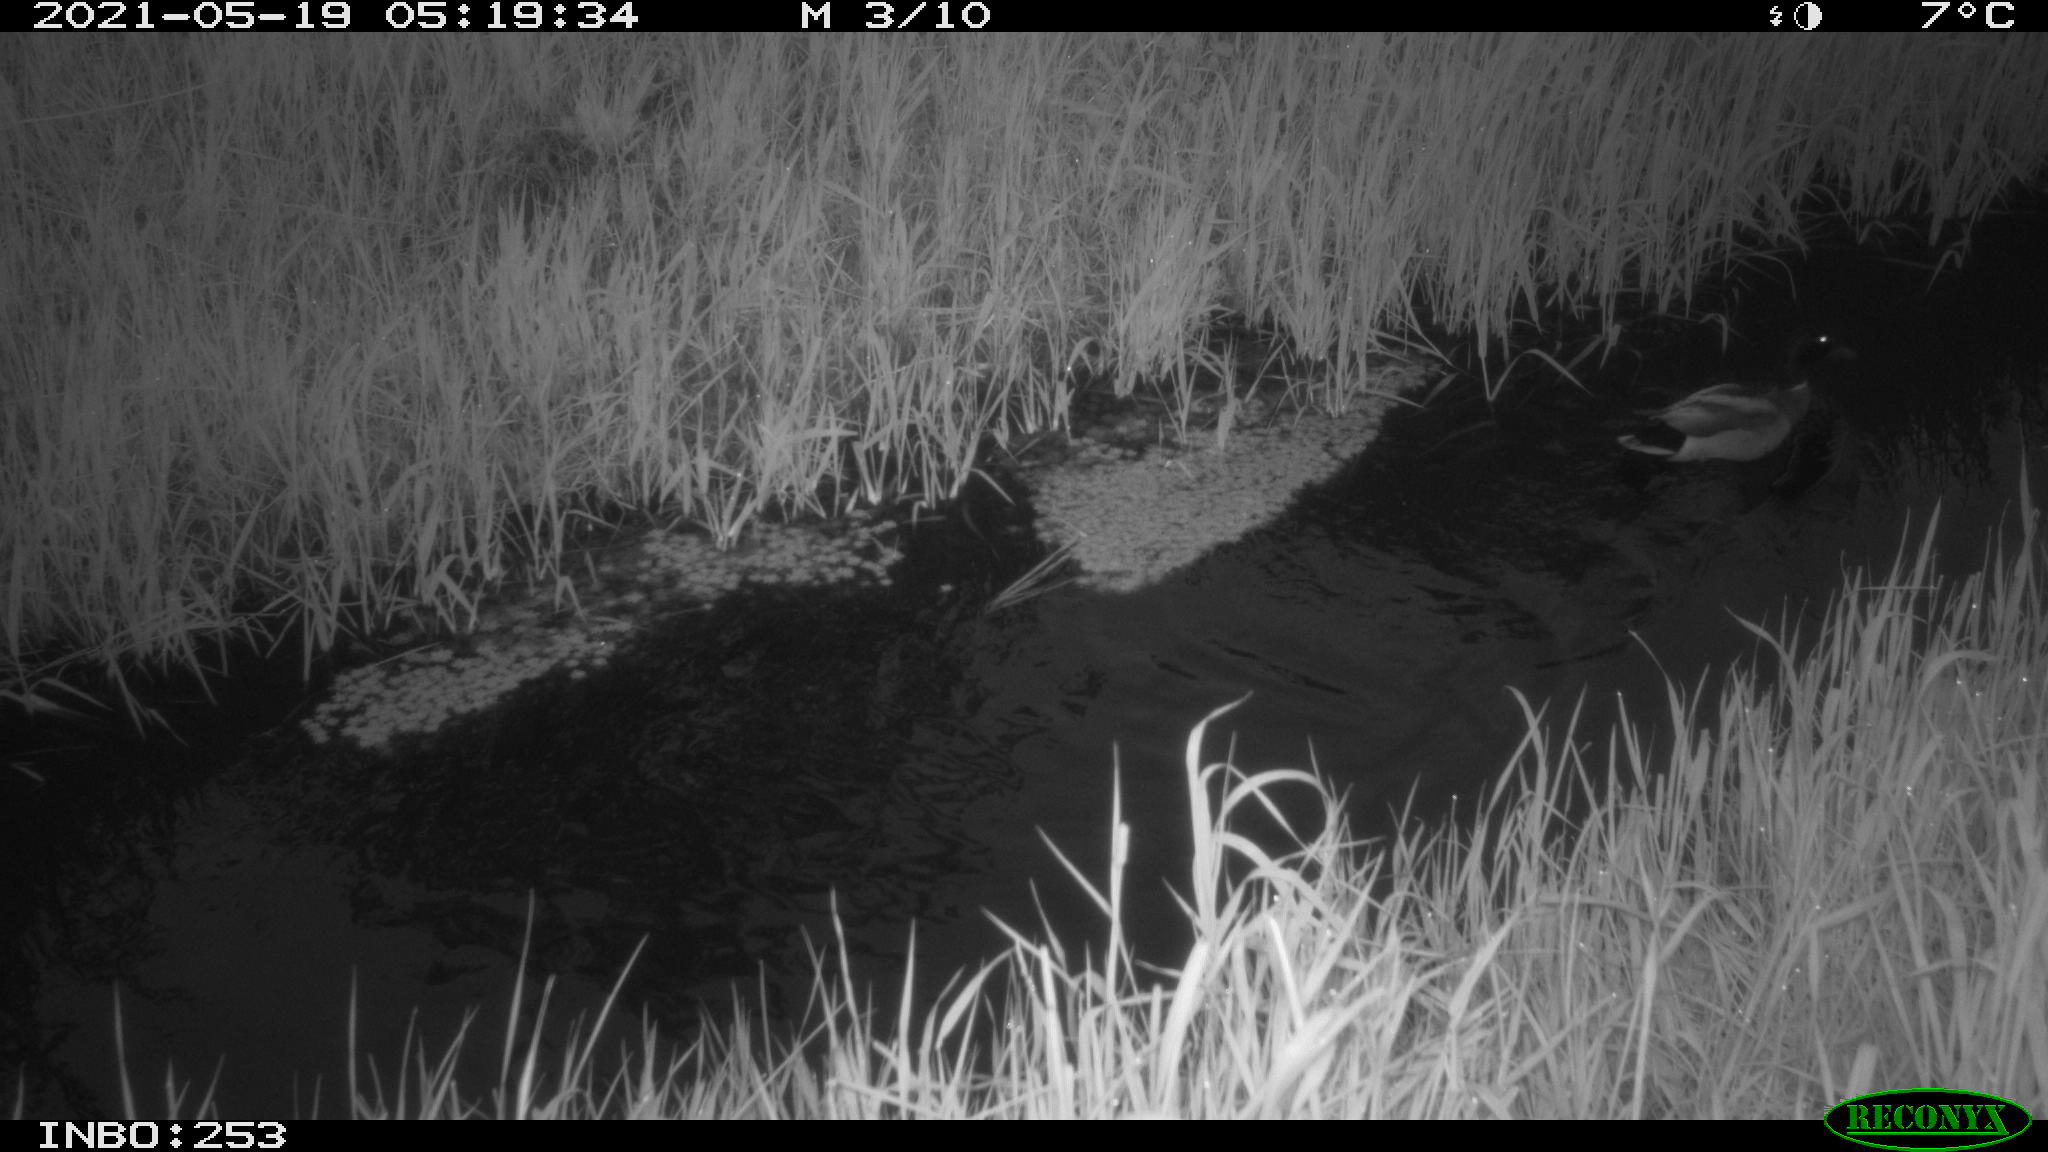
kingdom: Animalia
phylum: Chordata
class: Aves
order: Anseriformes
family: Anatidae
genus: Anas
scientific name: Anas platyrhynchos
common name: Mallard
